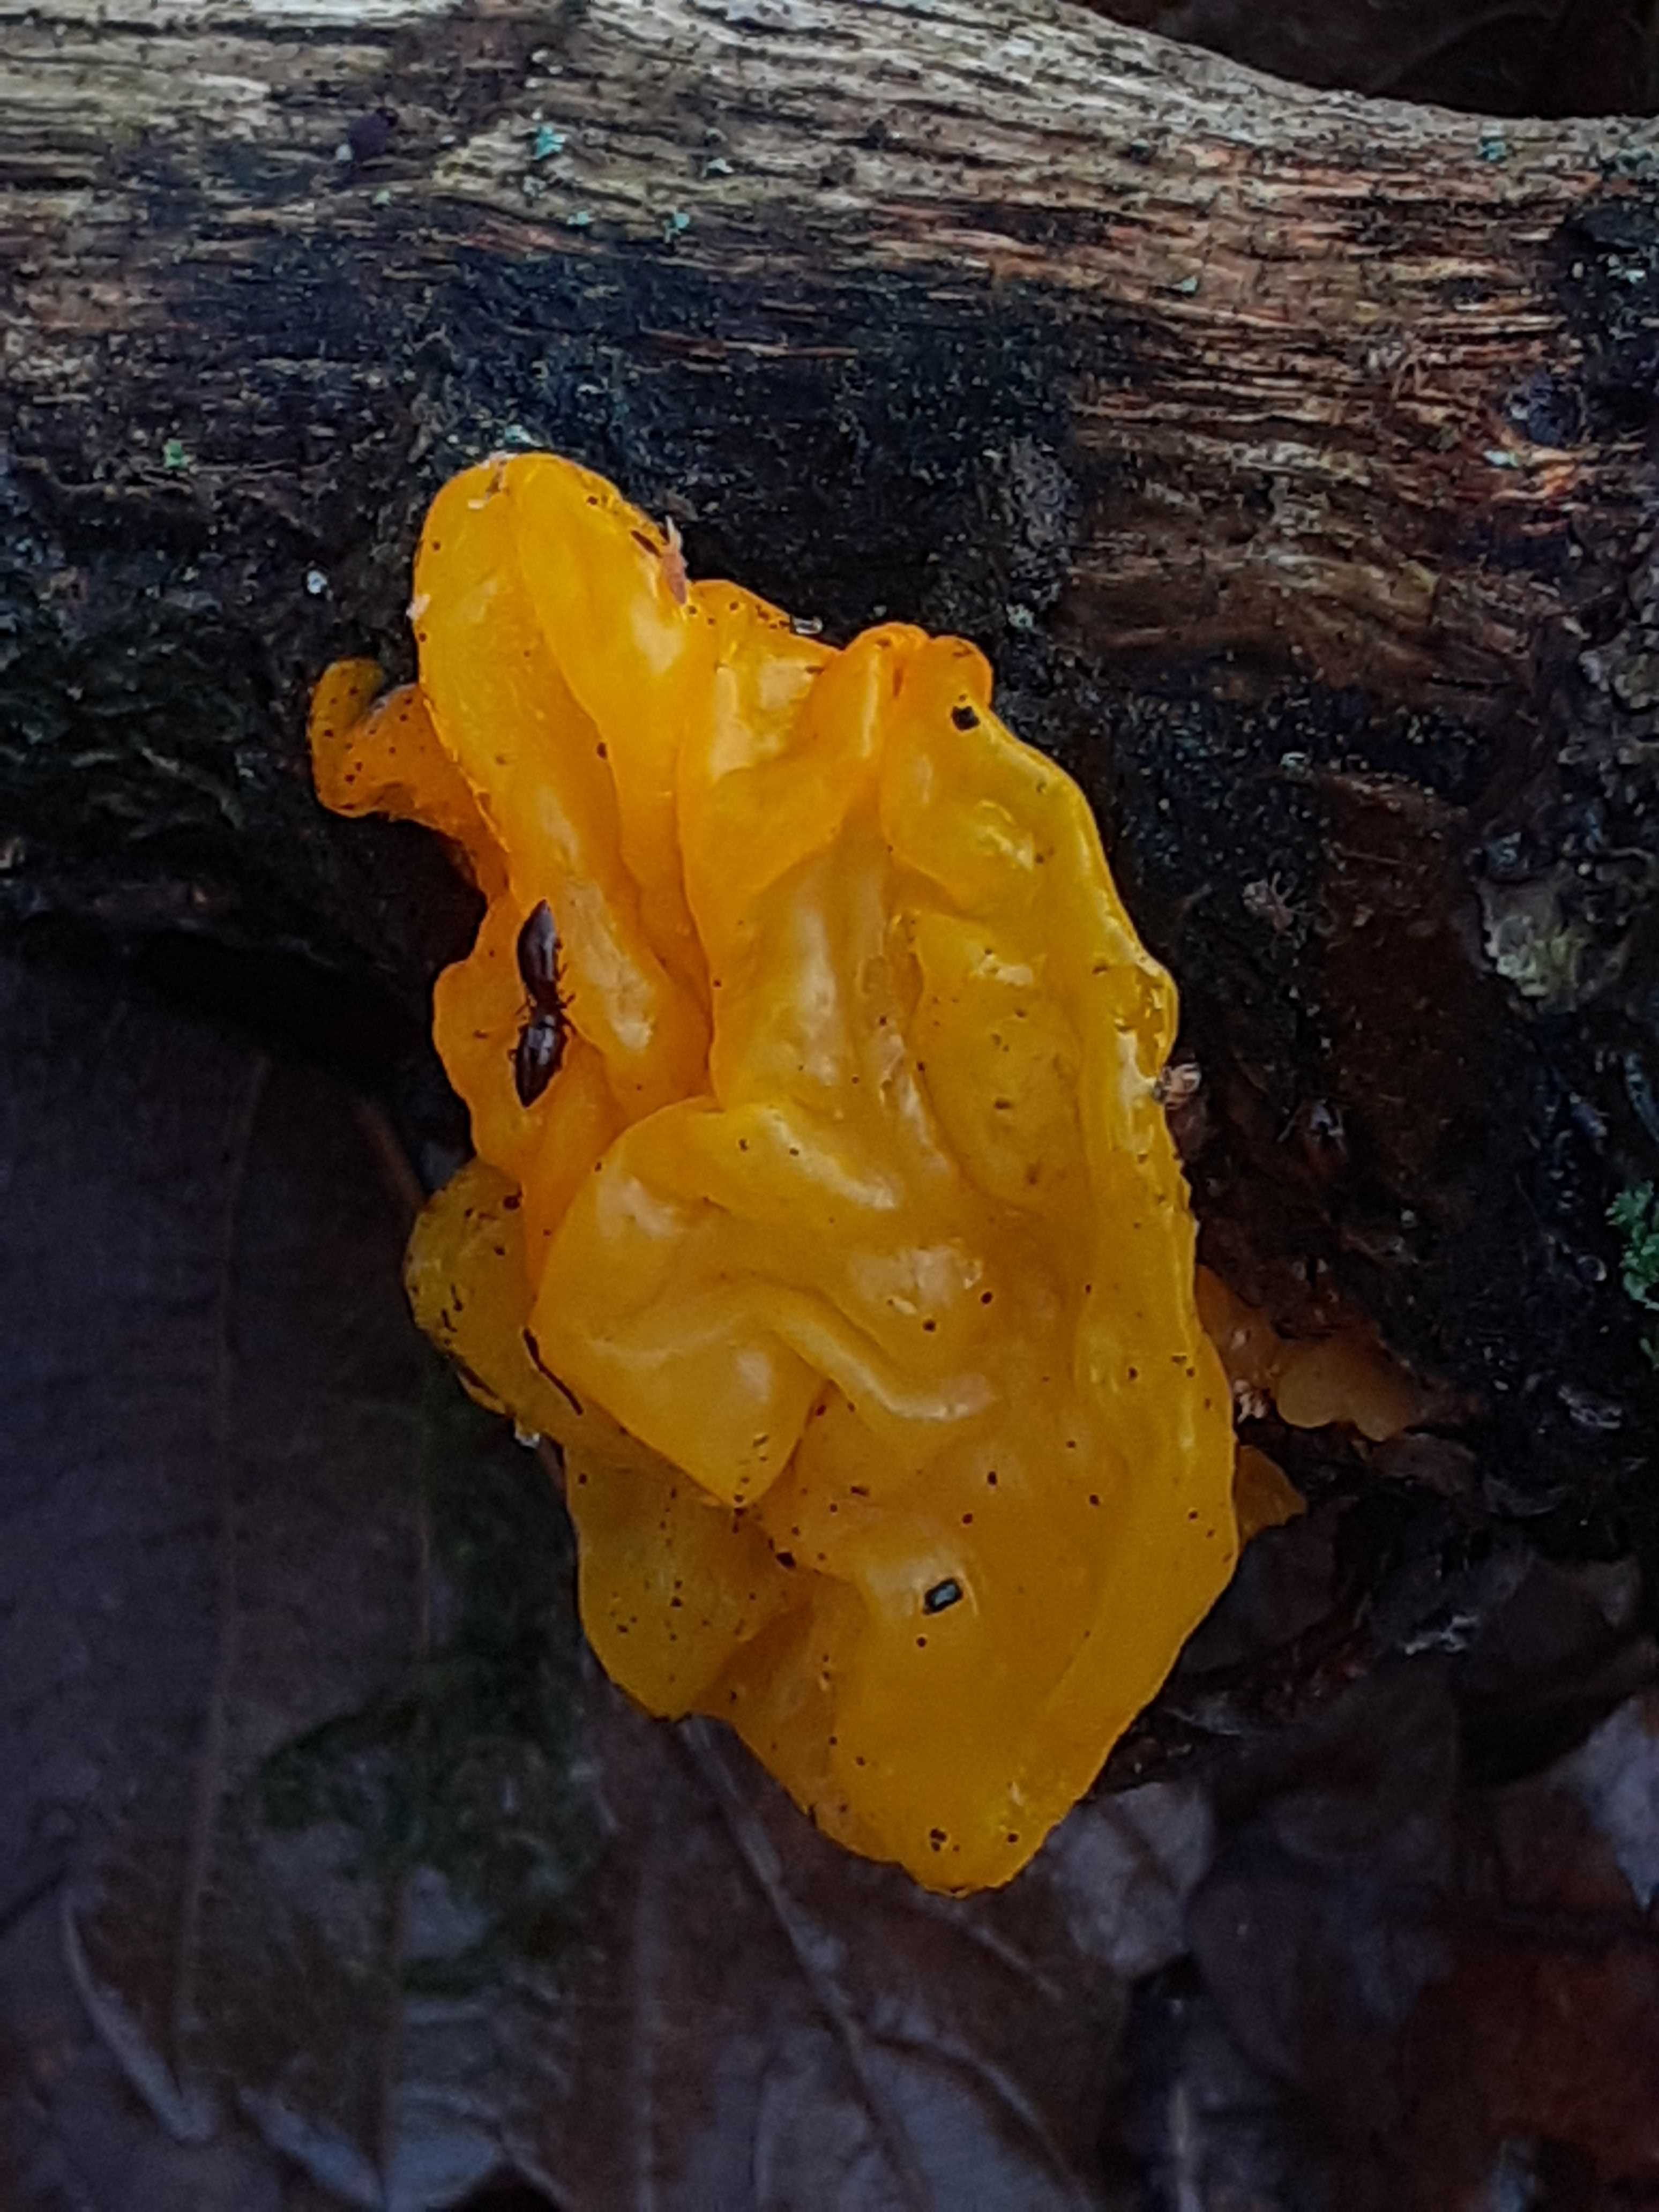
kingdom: Fungi
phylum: Basidiomycota
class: Tremellomycetes
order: Tremellales
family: Tremellaceae
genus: Tremella
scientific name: Tremella mesenterica
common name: gul bævresvamp
